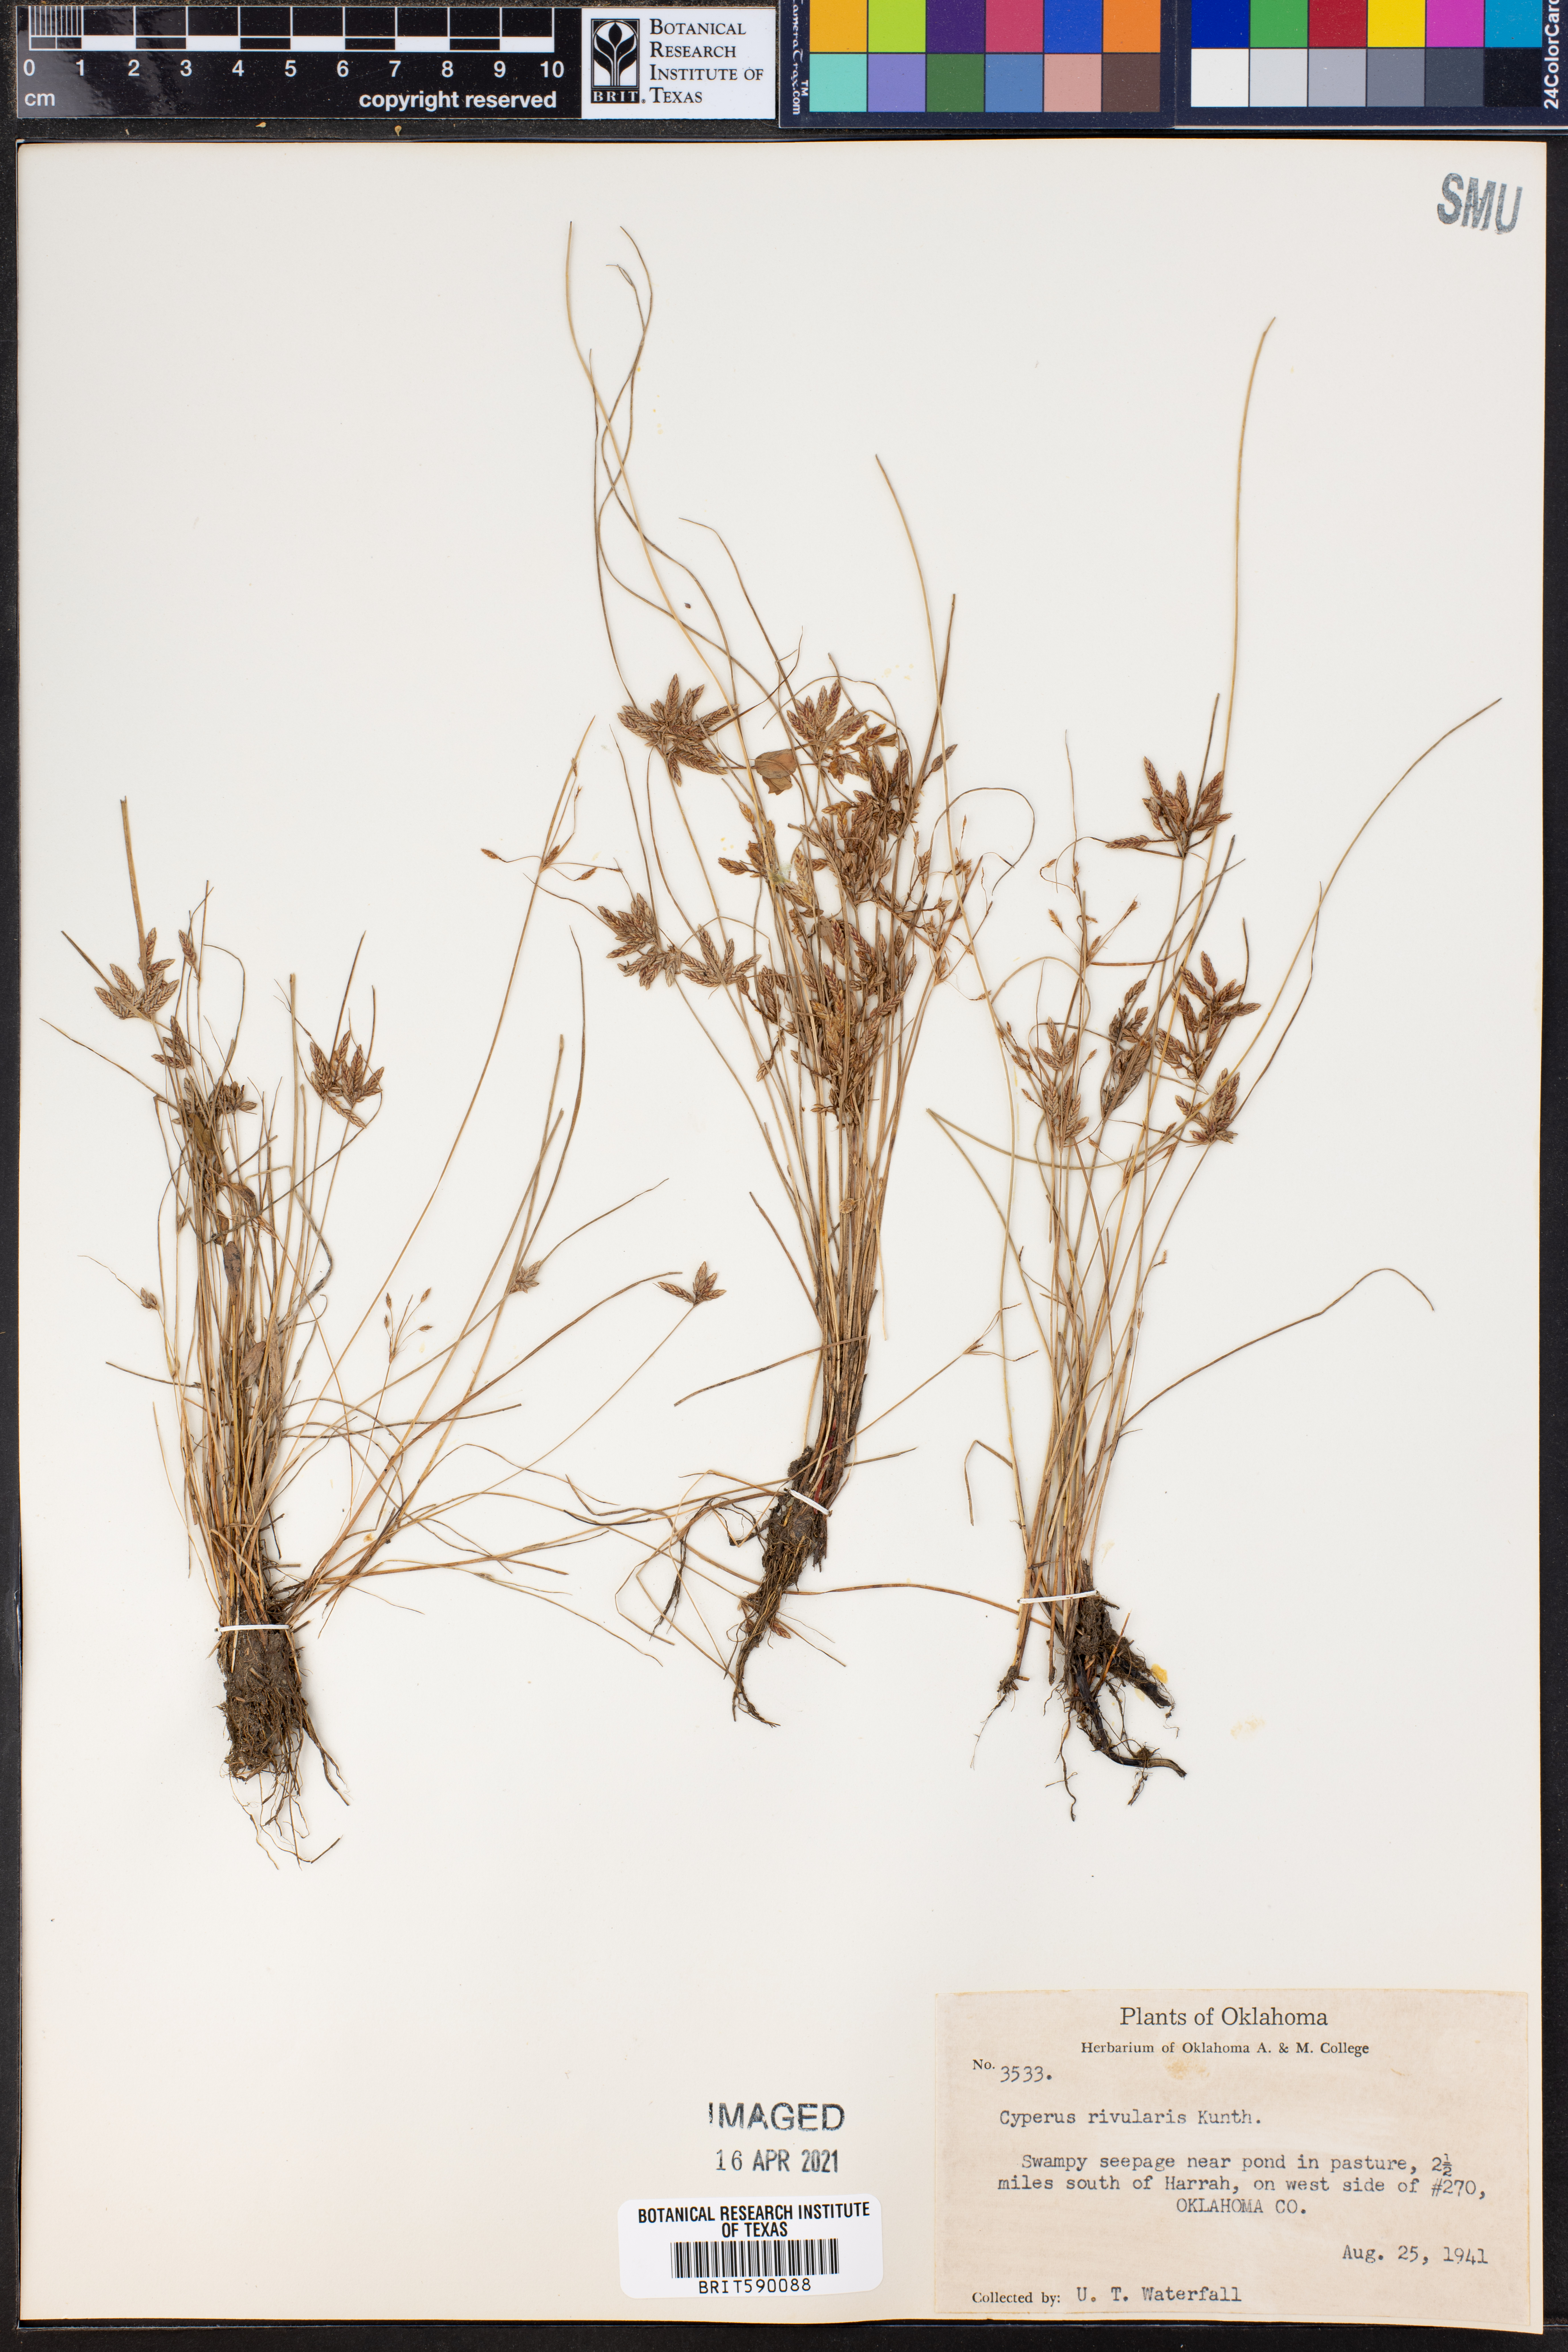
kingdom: Plantae
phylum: Tracheophyta
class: Liliopsida
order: Poales
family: Cyperaceae
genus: Cyperus
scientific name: Cyperus bipartitus
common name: Brook flatsedge
